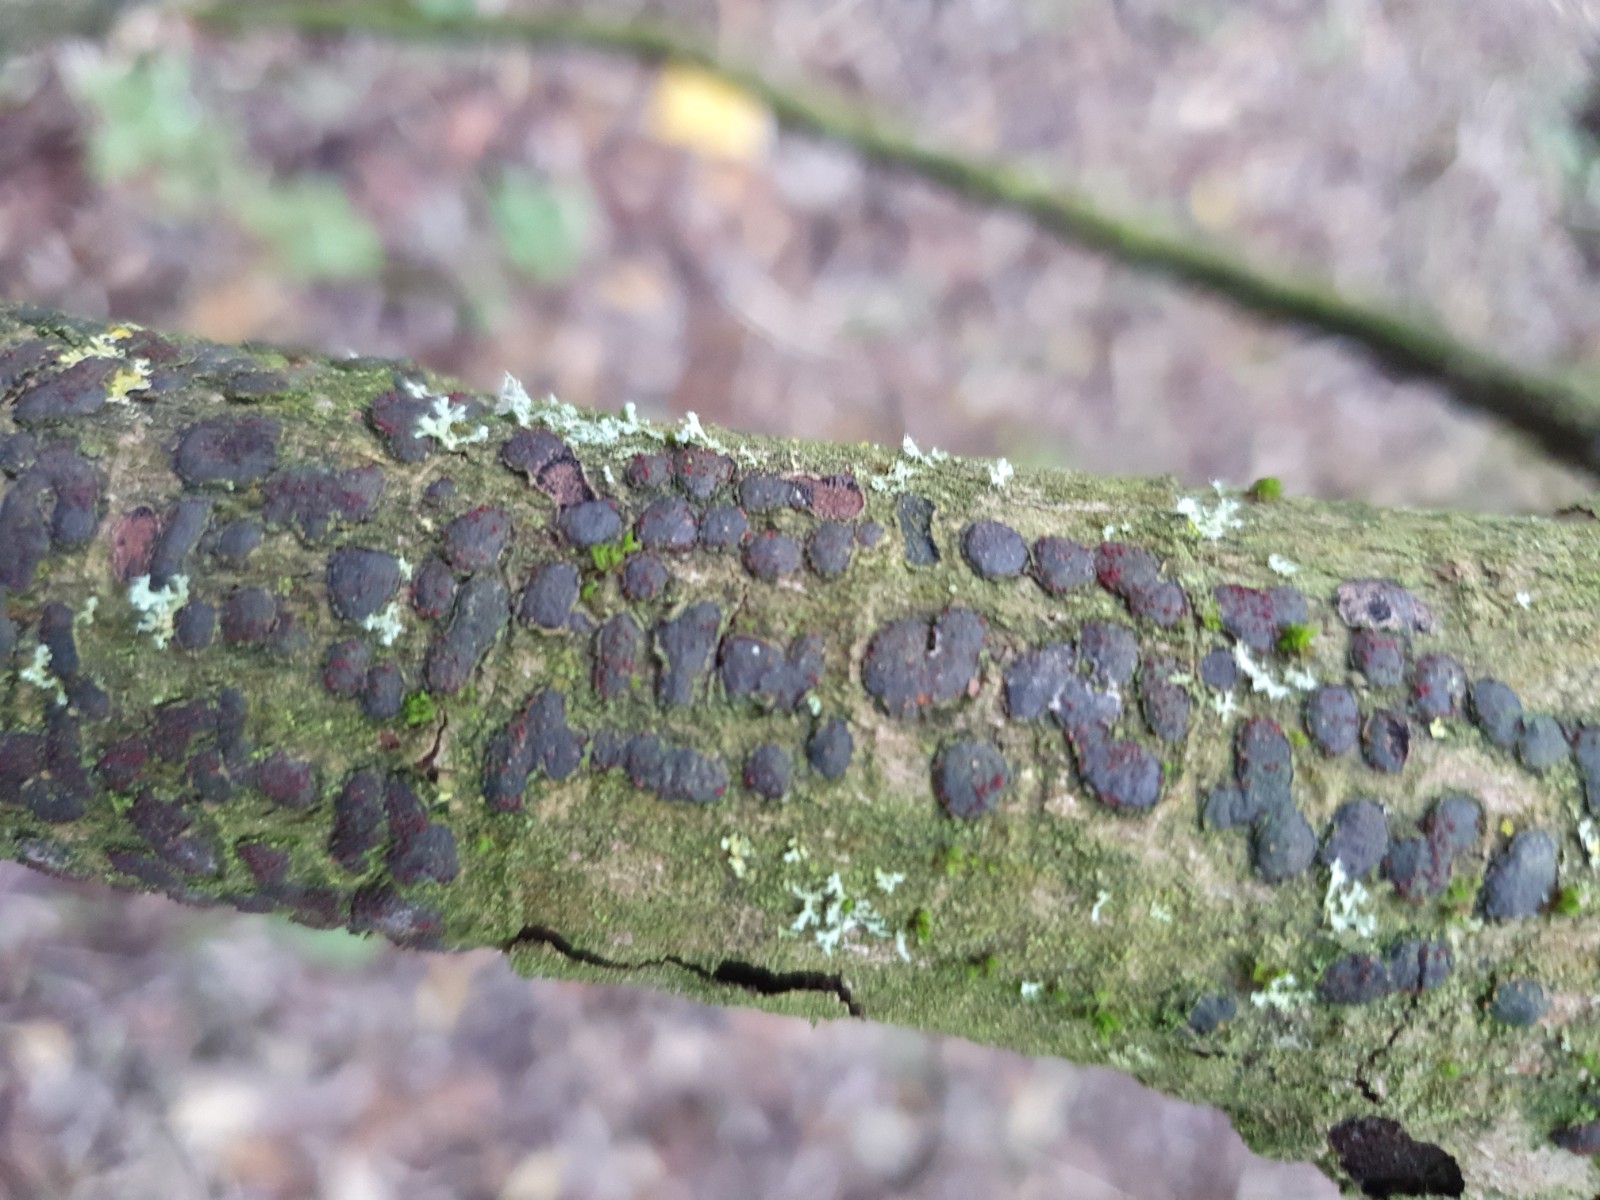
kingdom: Fungi
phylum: Ascomycota
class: Sordariomycetes
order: Hypocreales
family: Nectriaceae
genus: Dialonectria
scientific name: Dialonectria diatrypicola
